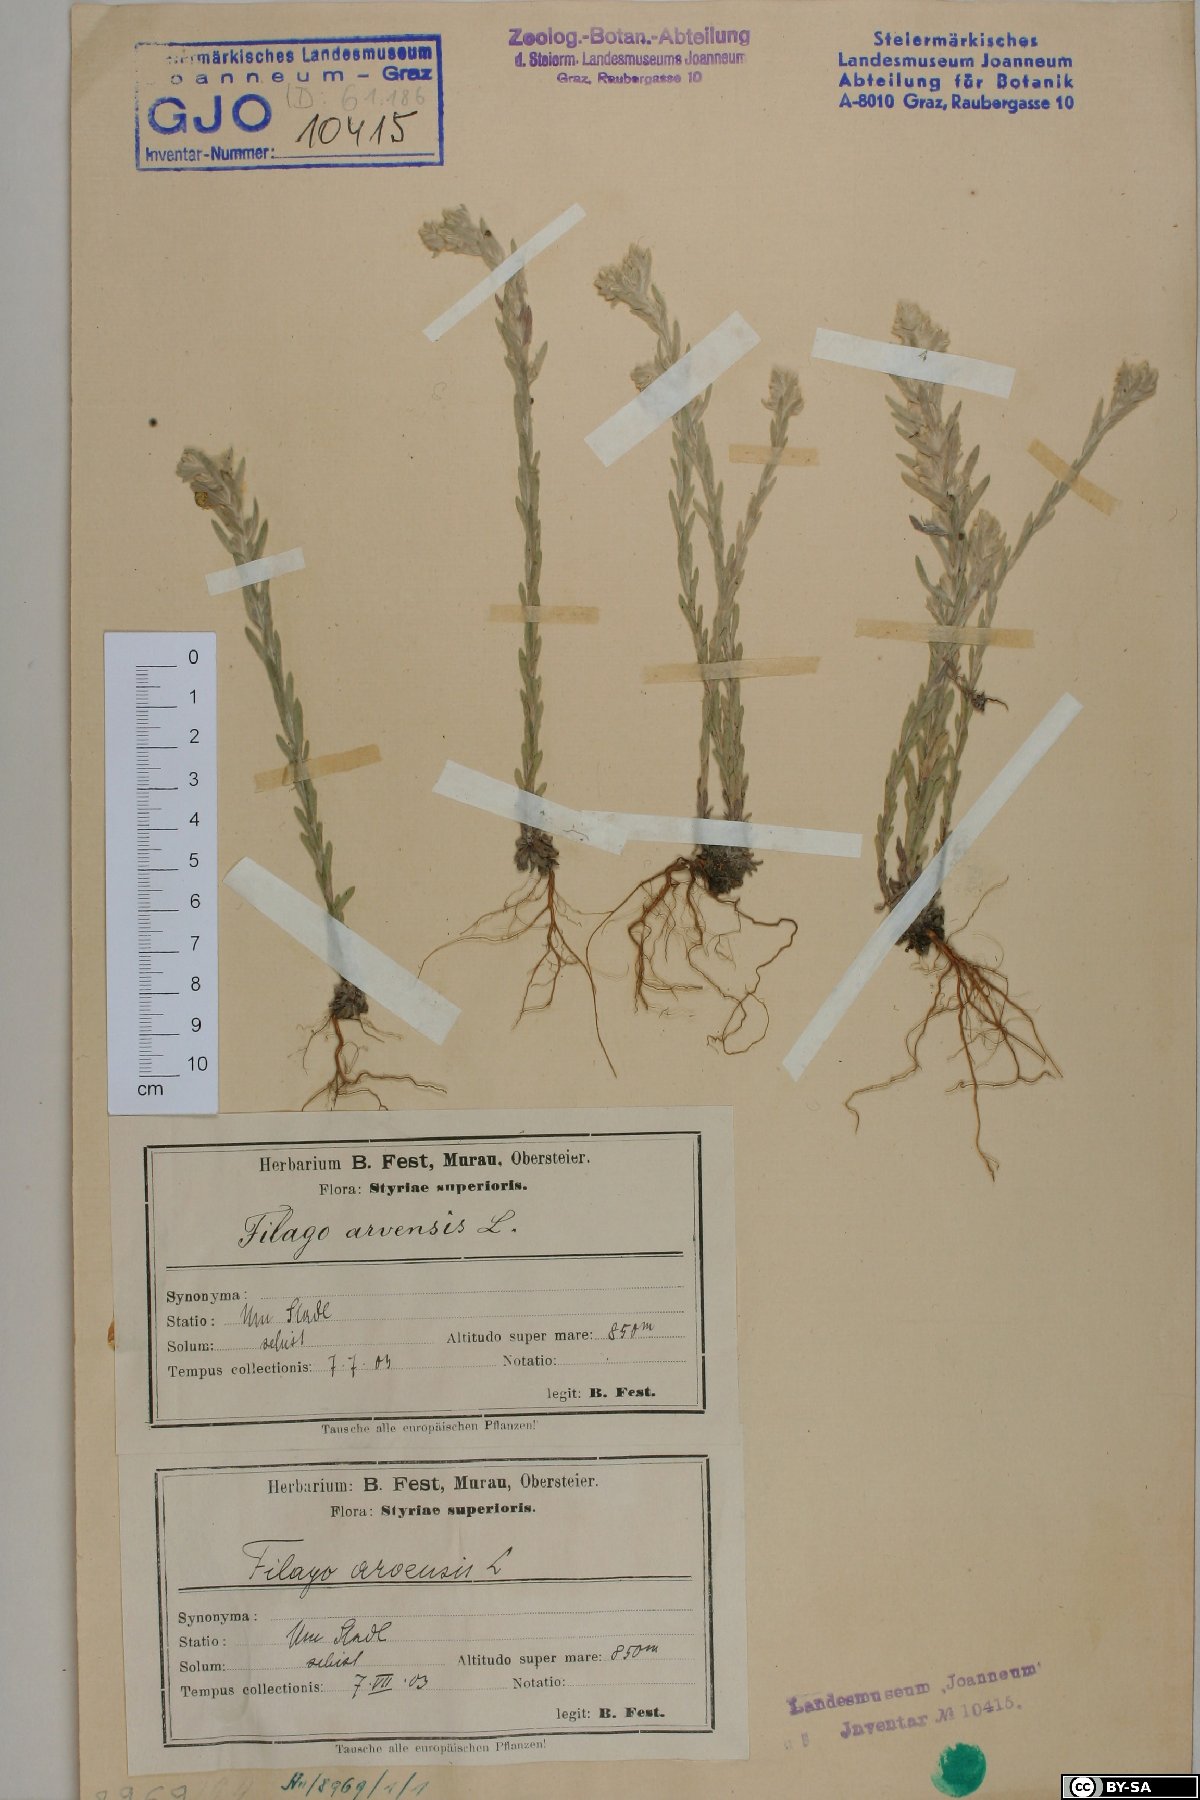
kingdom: Plantae
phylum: Tracheophyta
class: Magnoliopsida
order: Asterales
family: Asteraceae
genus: Filago
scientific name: Filago arvensis
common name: Field cudweed
